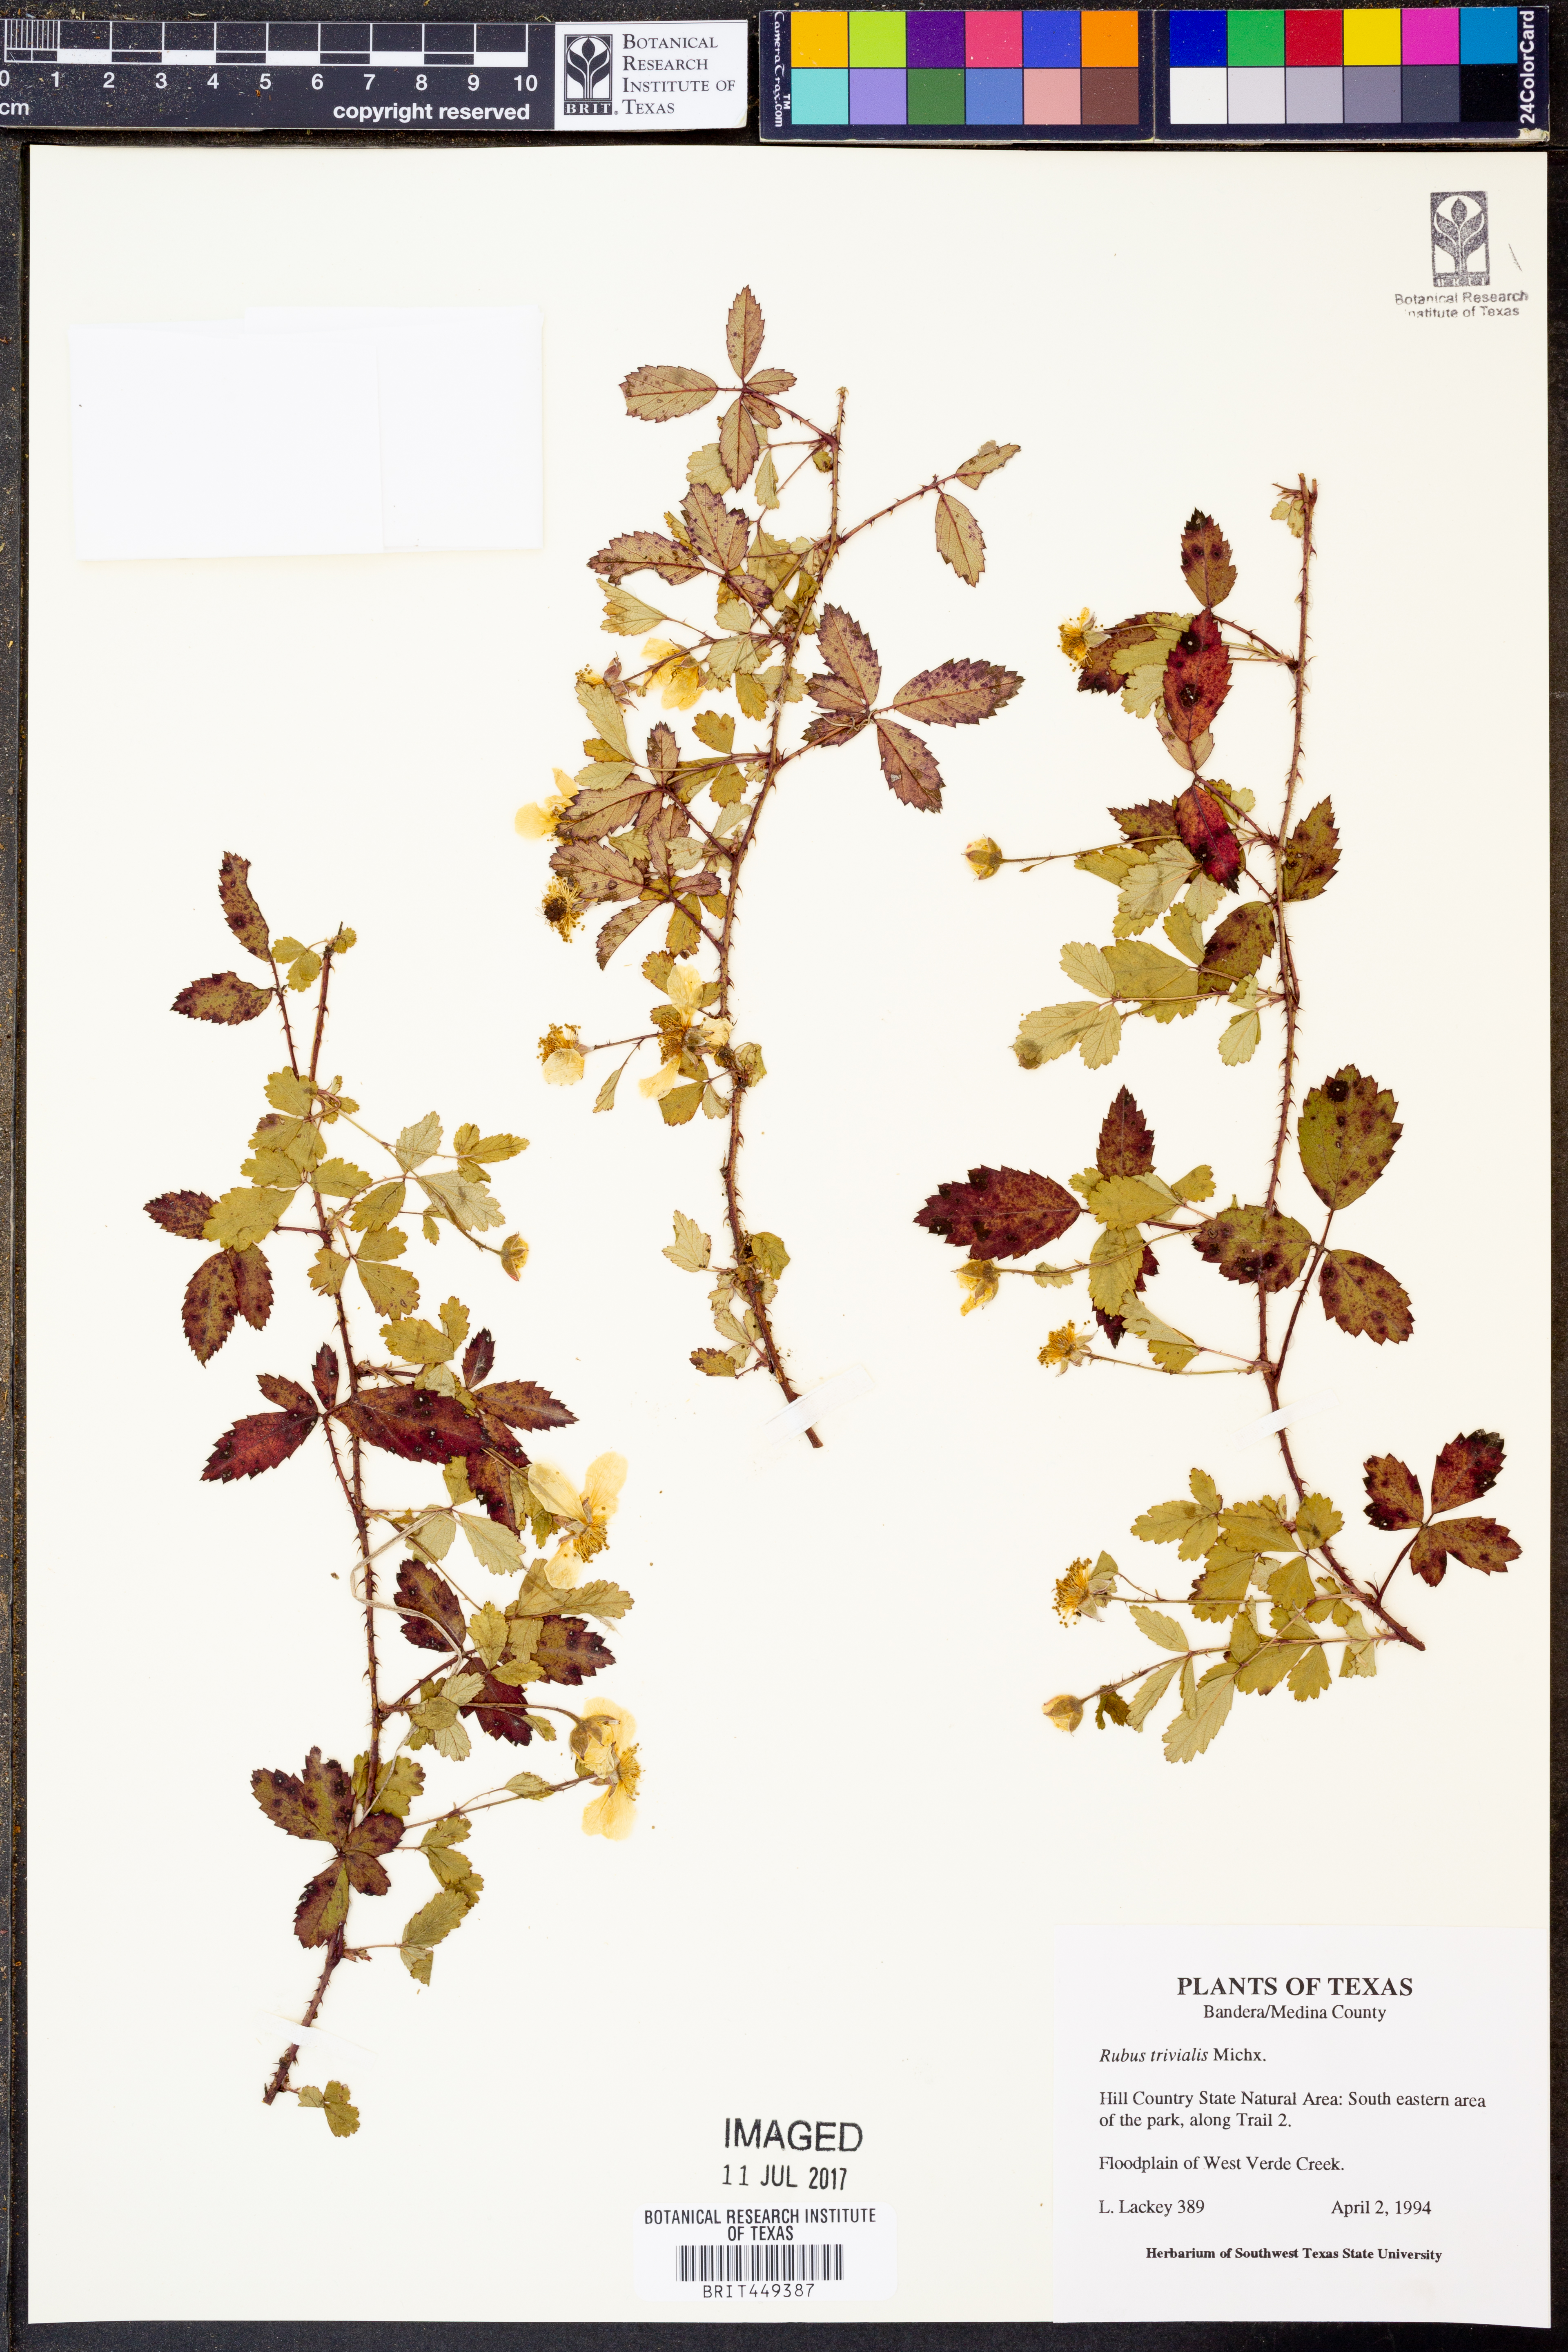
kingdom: Plantae
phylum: Tracheophyta
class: Magnoliopsida
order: Rosales
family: Rosaceae
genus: Rubus
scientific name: Rubus trivialis
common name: Southern dewberry
